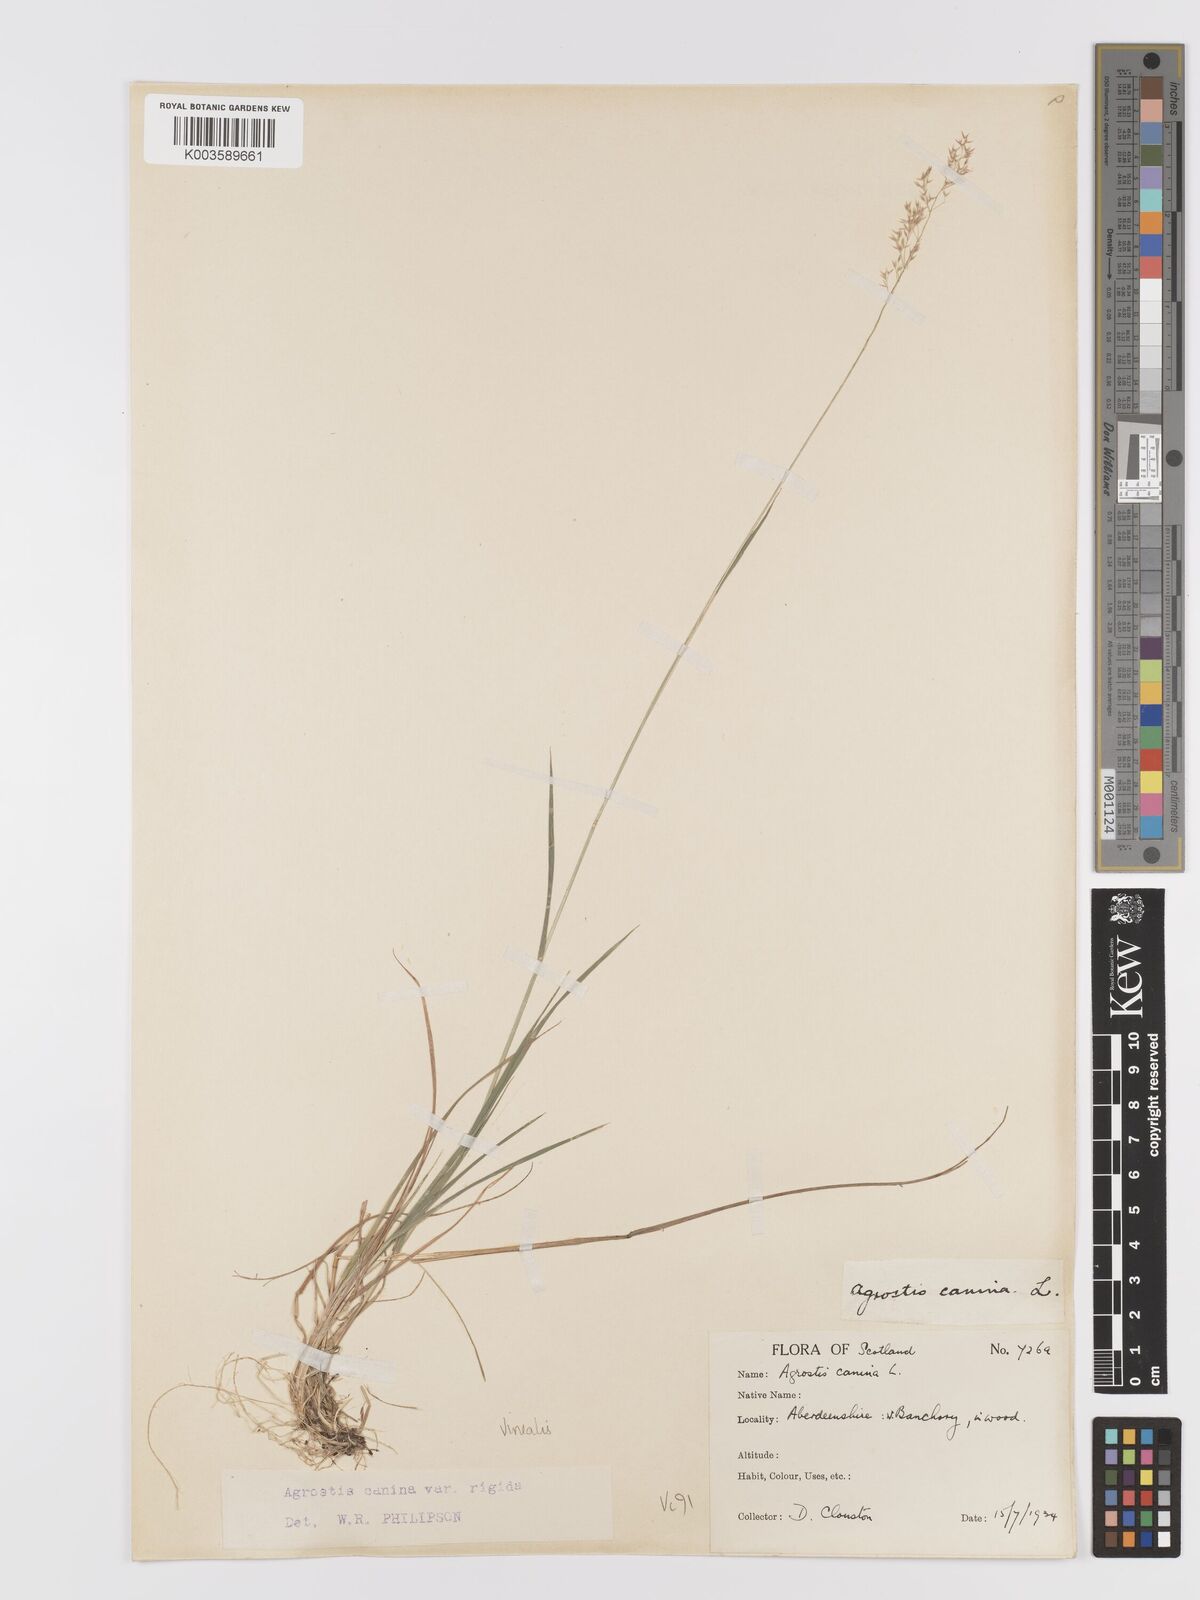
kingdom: Plantae
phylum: Tracheophyta
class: Liliopsida
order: Poales
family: Poaceae
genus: Agrostis
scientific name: Agrostis
